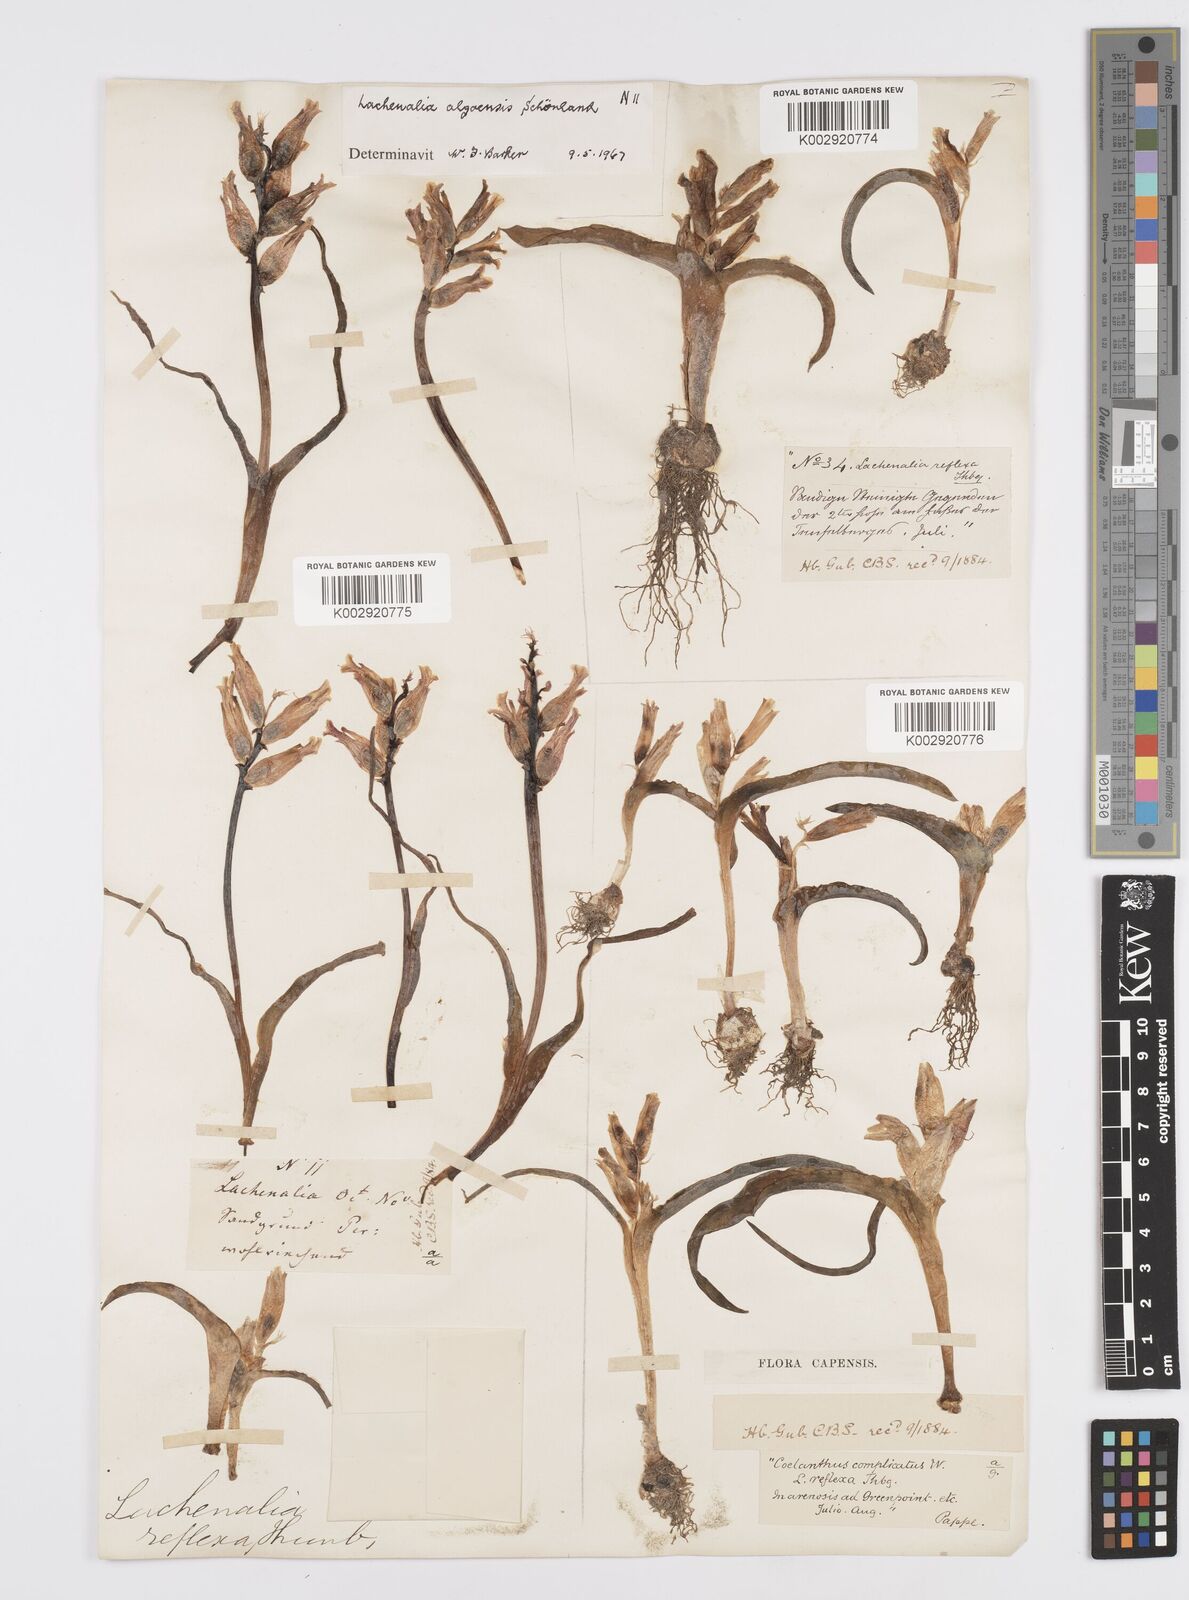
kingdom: Plantae
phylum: Tracheophyta
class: Liliopsida
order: Asparagales
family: Asparagaceae
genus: Lachenalia
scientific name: Lachenalia algoensis
